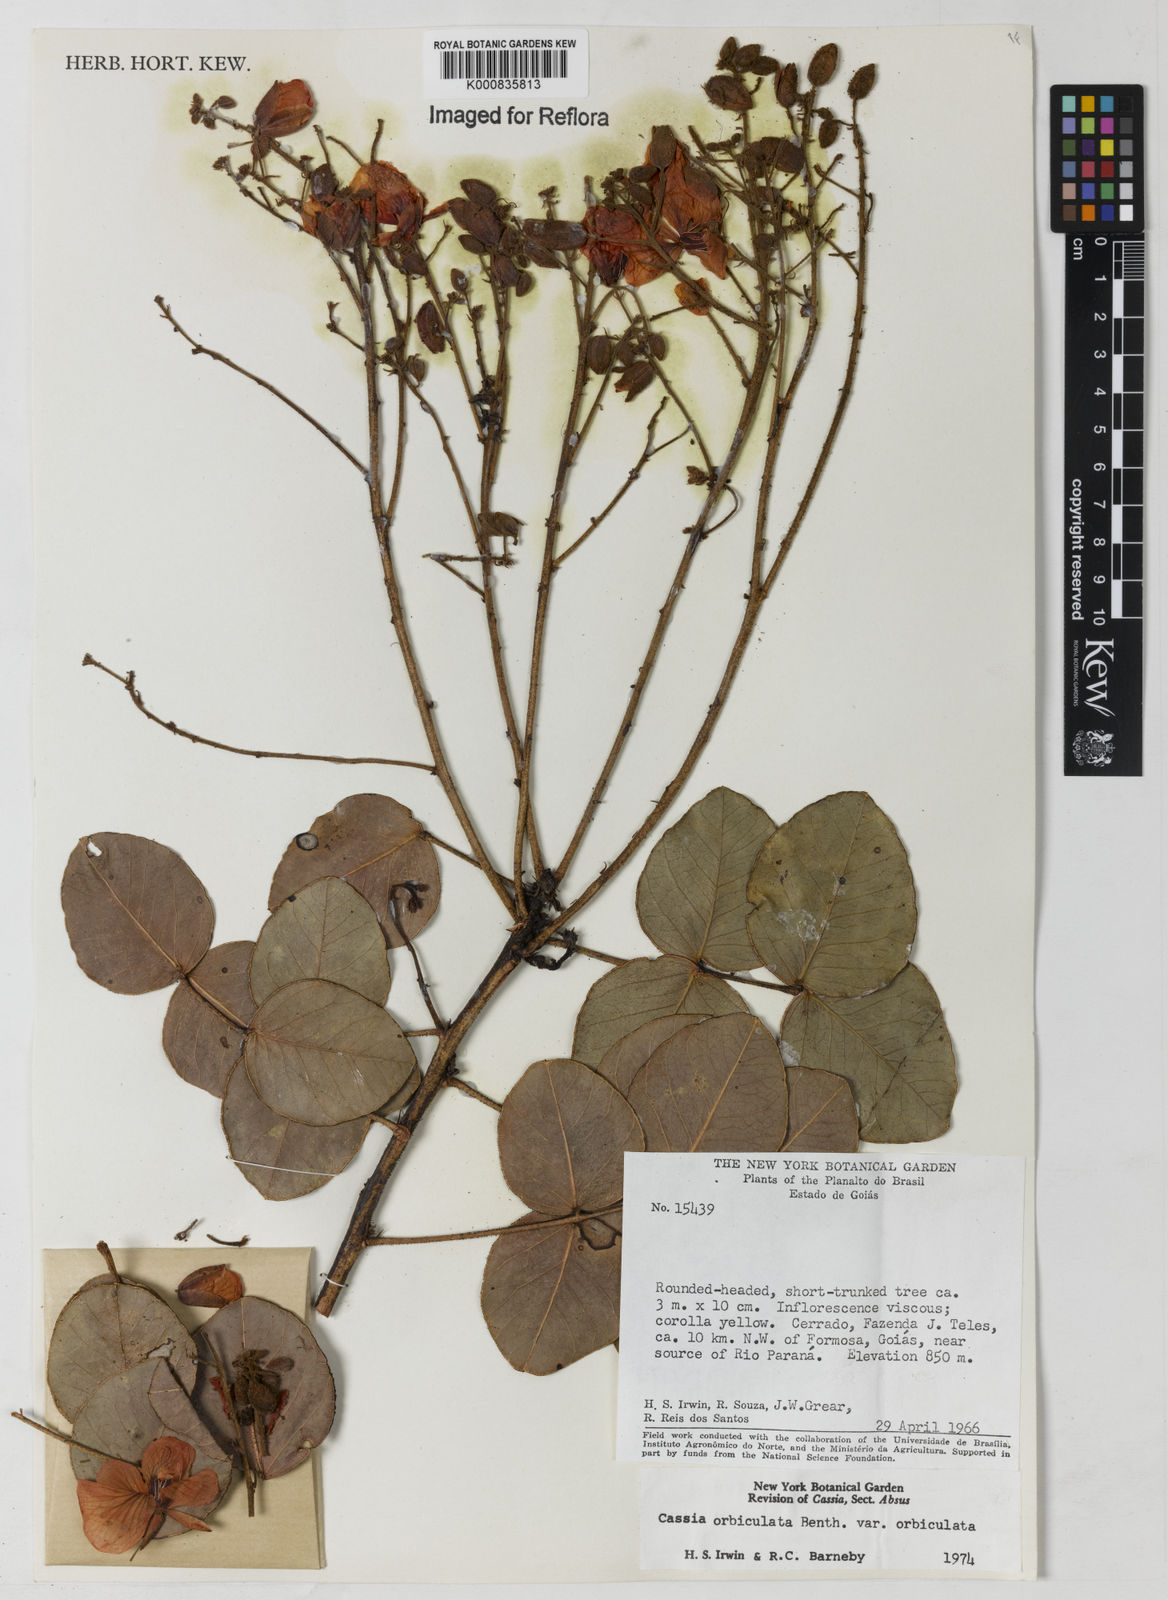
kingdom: Plantae
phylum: Tracheophyta
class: Magnoliopsida
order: Fabales
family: Fabaceae
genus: Chamaecrista
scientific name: Chamaecrista orbiculata
